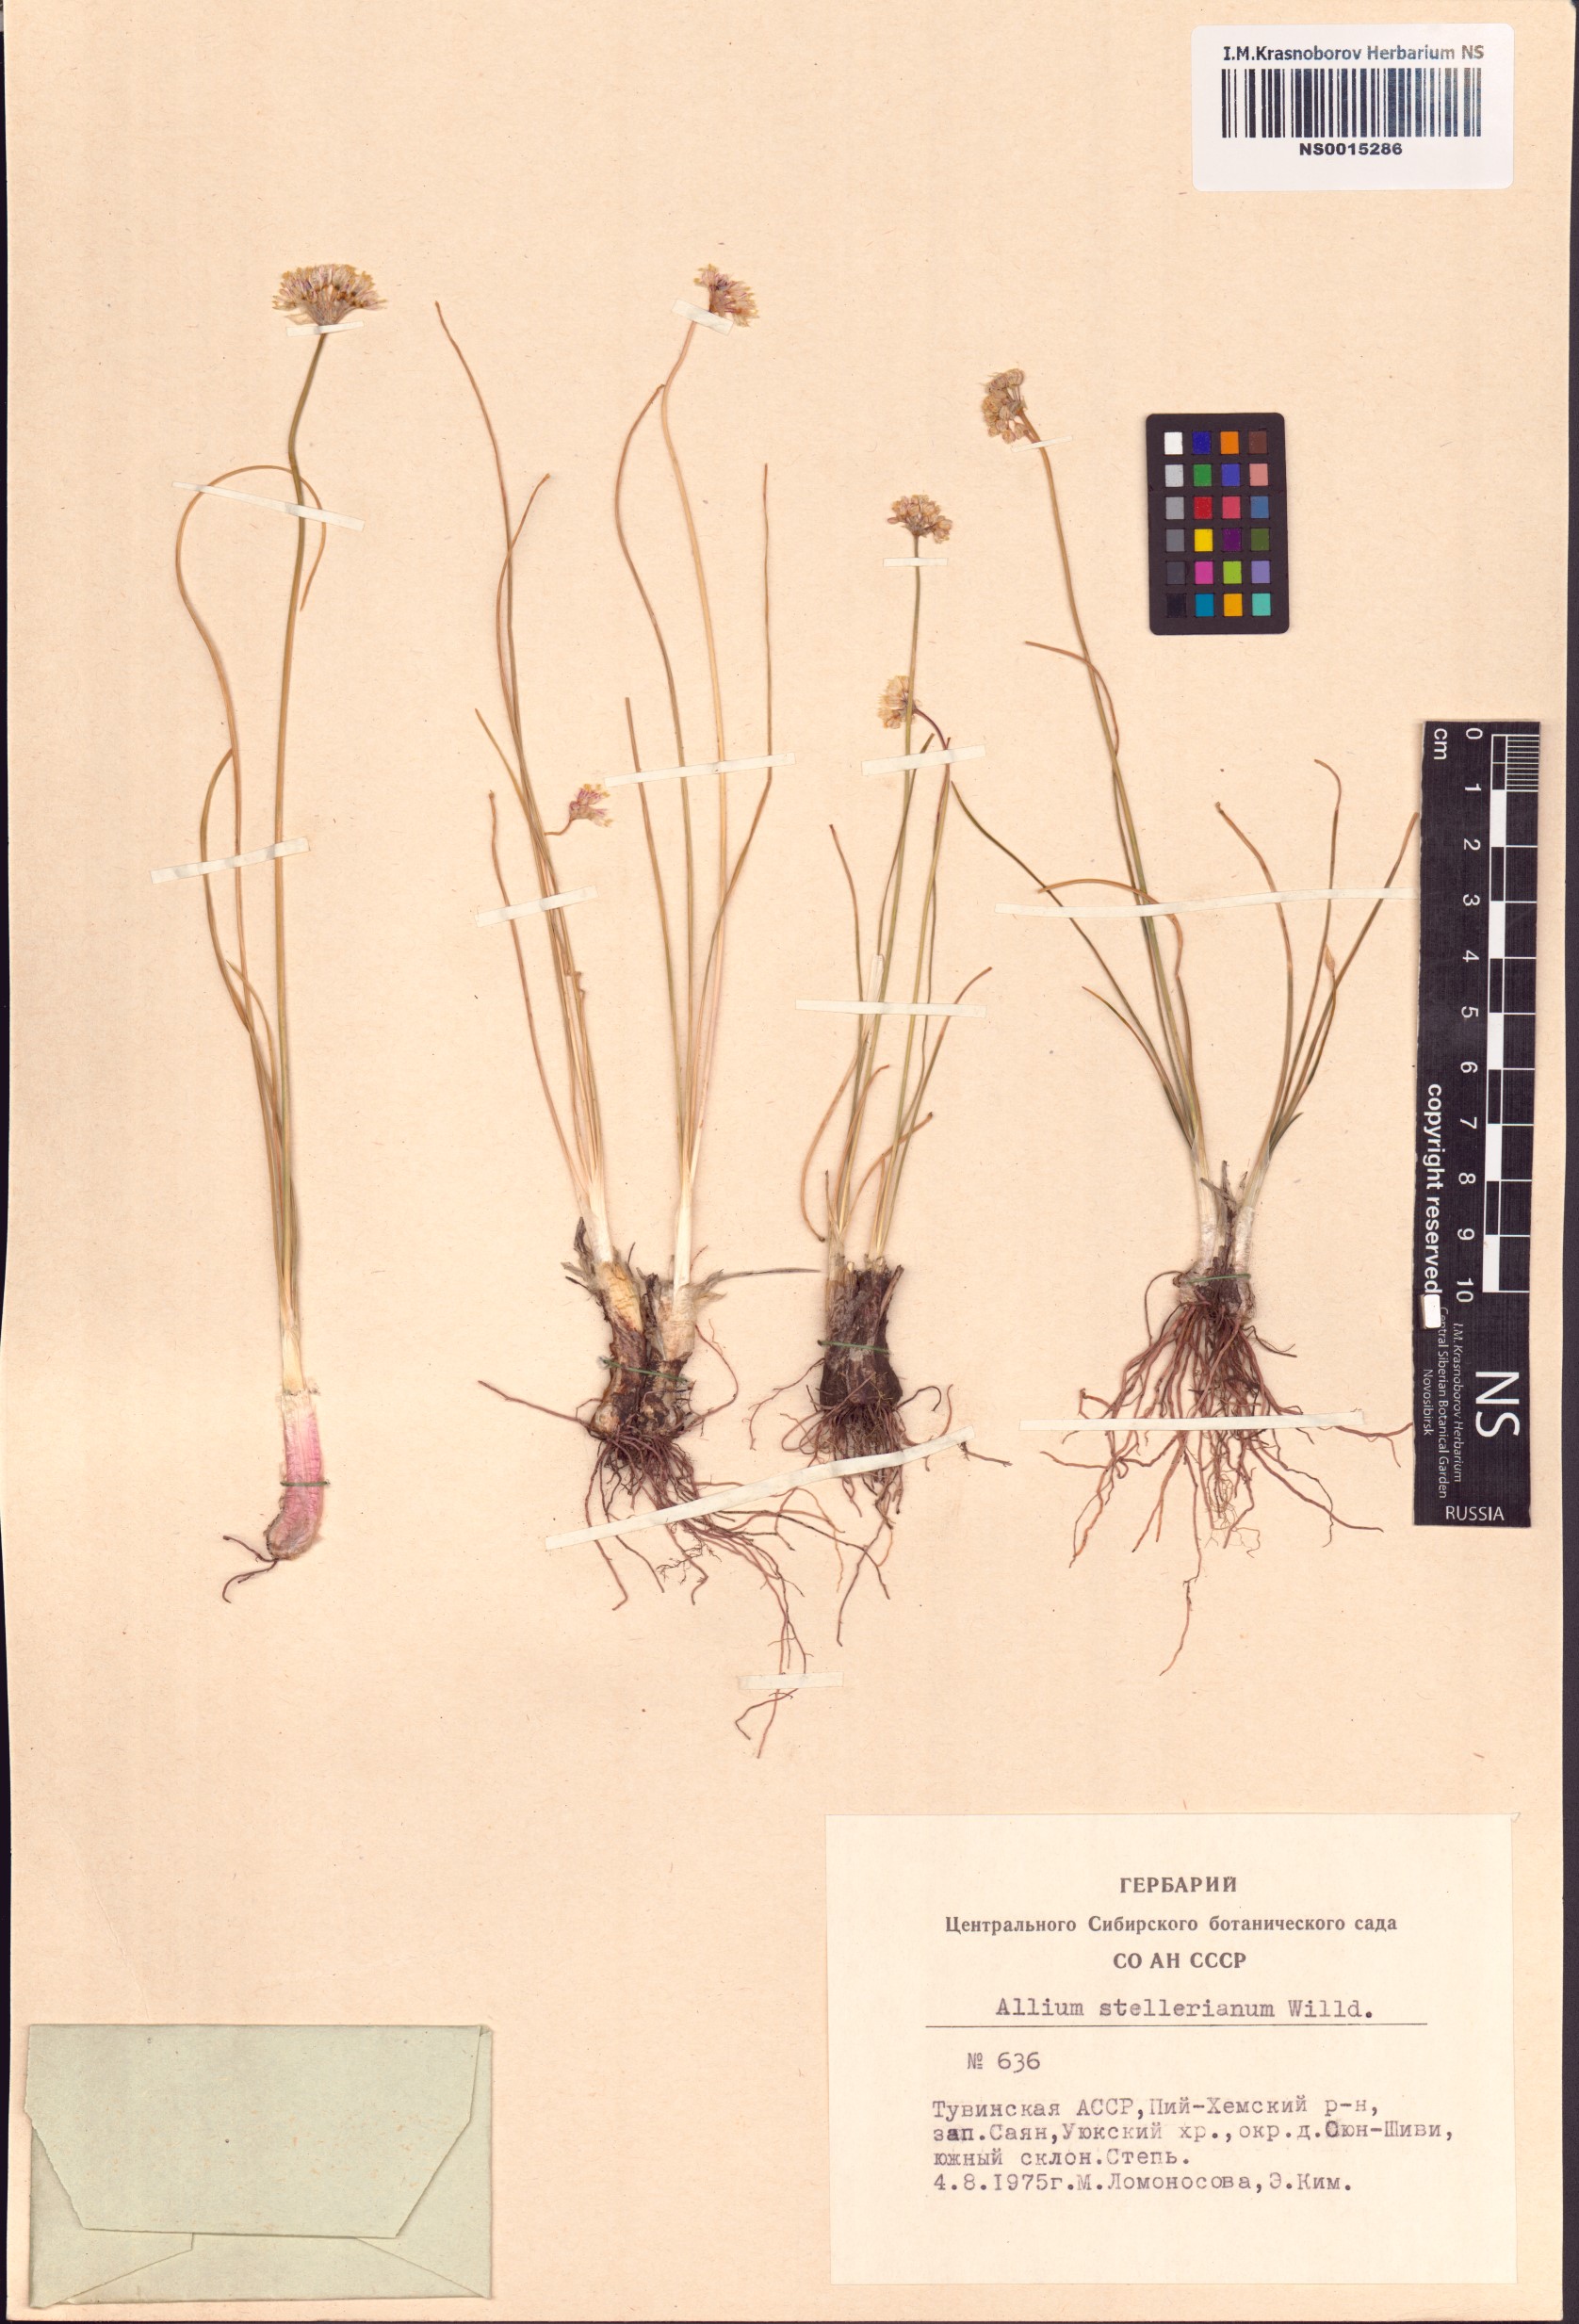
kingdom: Plantae
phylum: Tracheophyta
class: Liliopsida
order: Asparagales
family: Amaryllidaceae
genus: Allium
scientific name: Allium stellerianum
